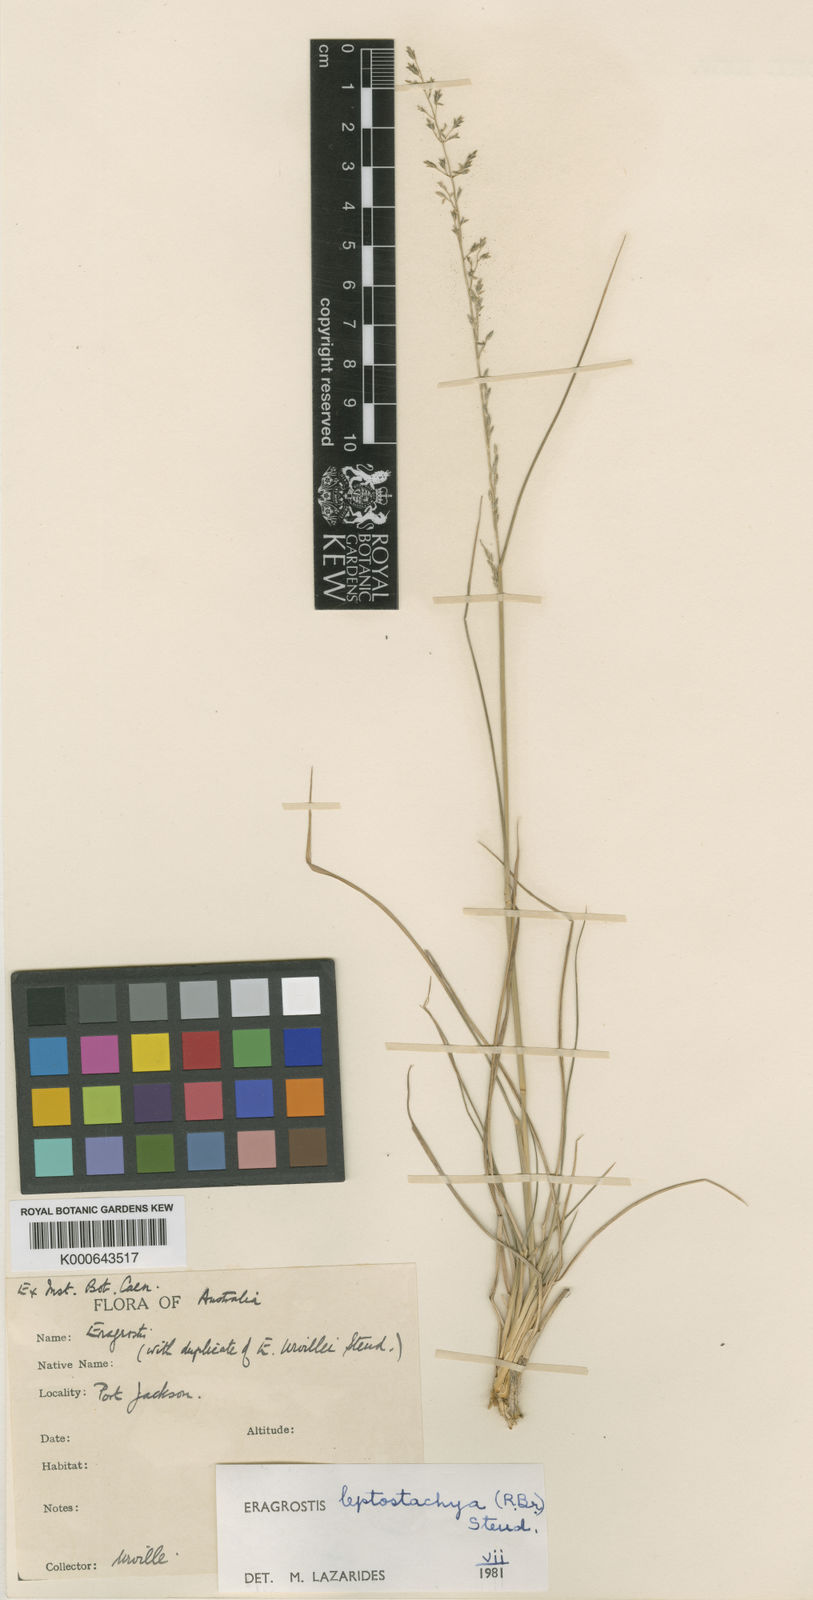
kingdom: Plantae
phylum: Tracheophyta
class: Liliopsida
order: Poales
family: Poaceae
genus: Eragrostis
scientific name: Eragrostis leptostachya
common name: Australian lovegrass
